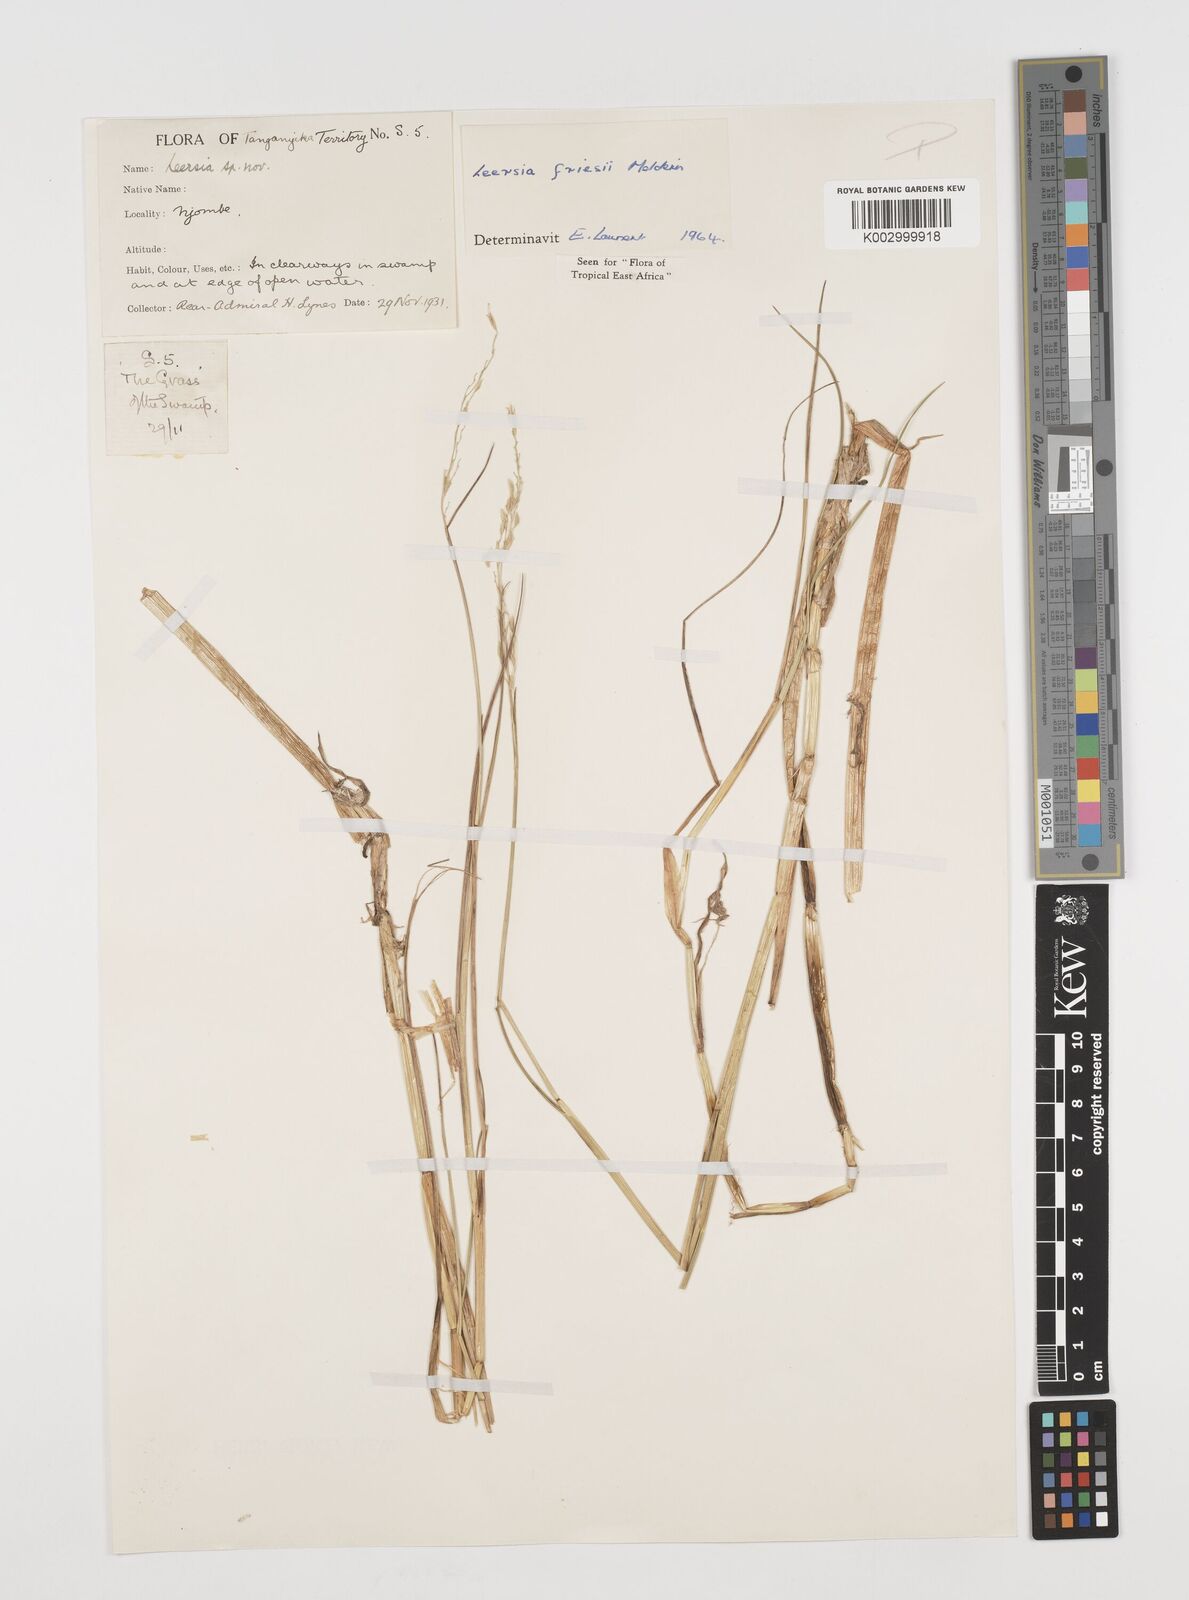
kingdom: Plantae
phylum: Tracheophyta
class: Liliopsida
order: Poales
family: Poaceae
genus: Leersia
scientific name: Leersia friesii
